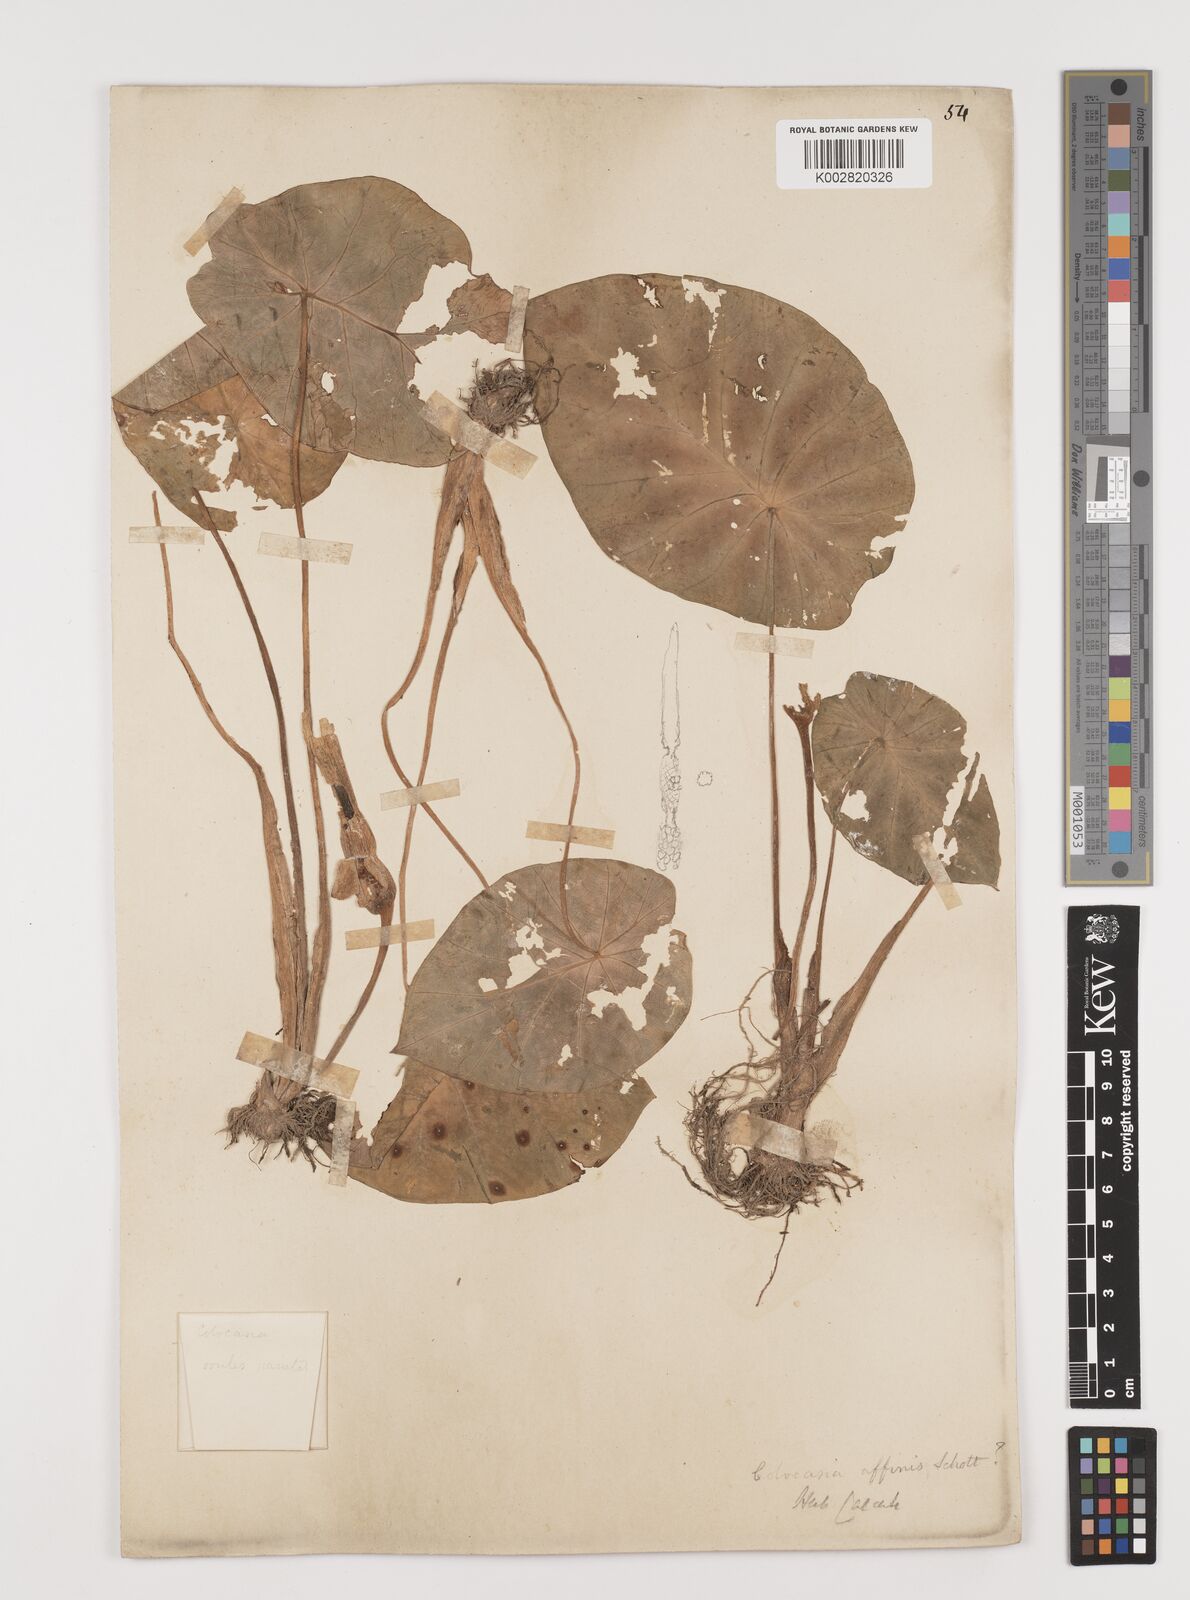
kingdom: Plantae
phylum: Tracheophyta
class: Liliopsida
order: Alismatales
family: Araceae
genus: Colocasia
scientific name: Colocasia affinis
